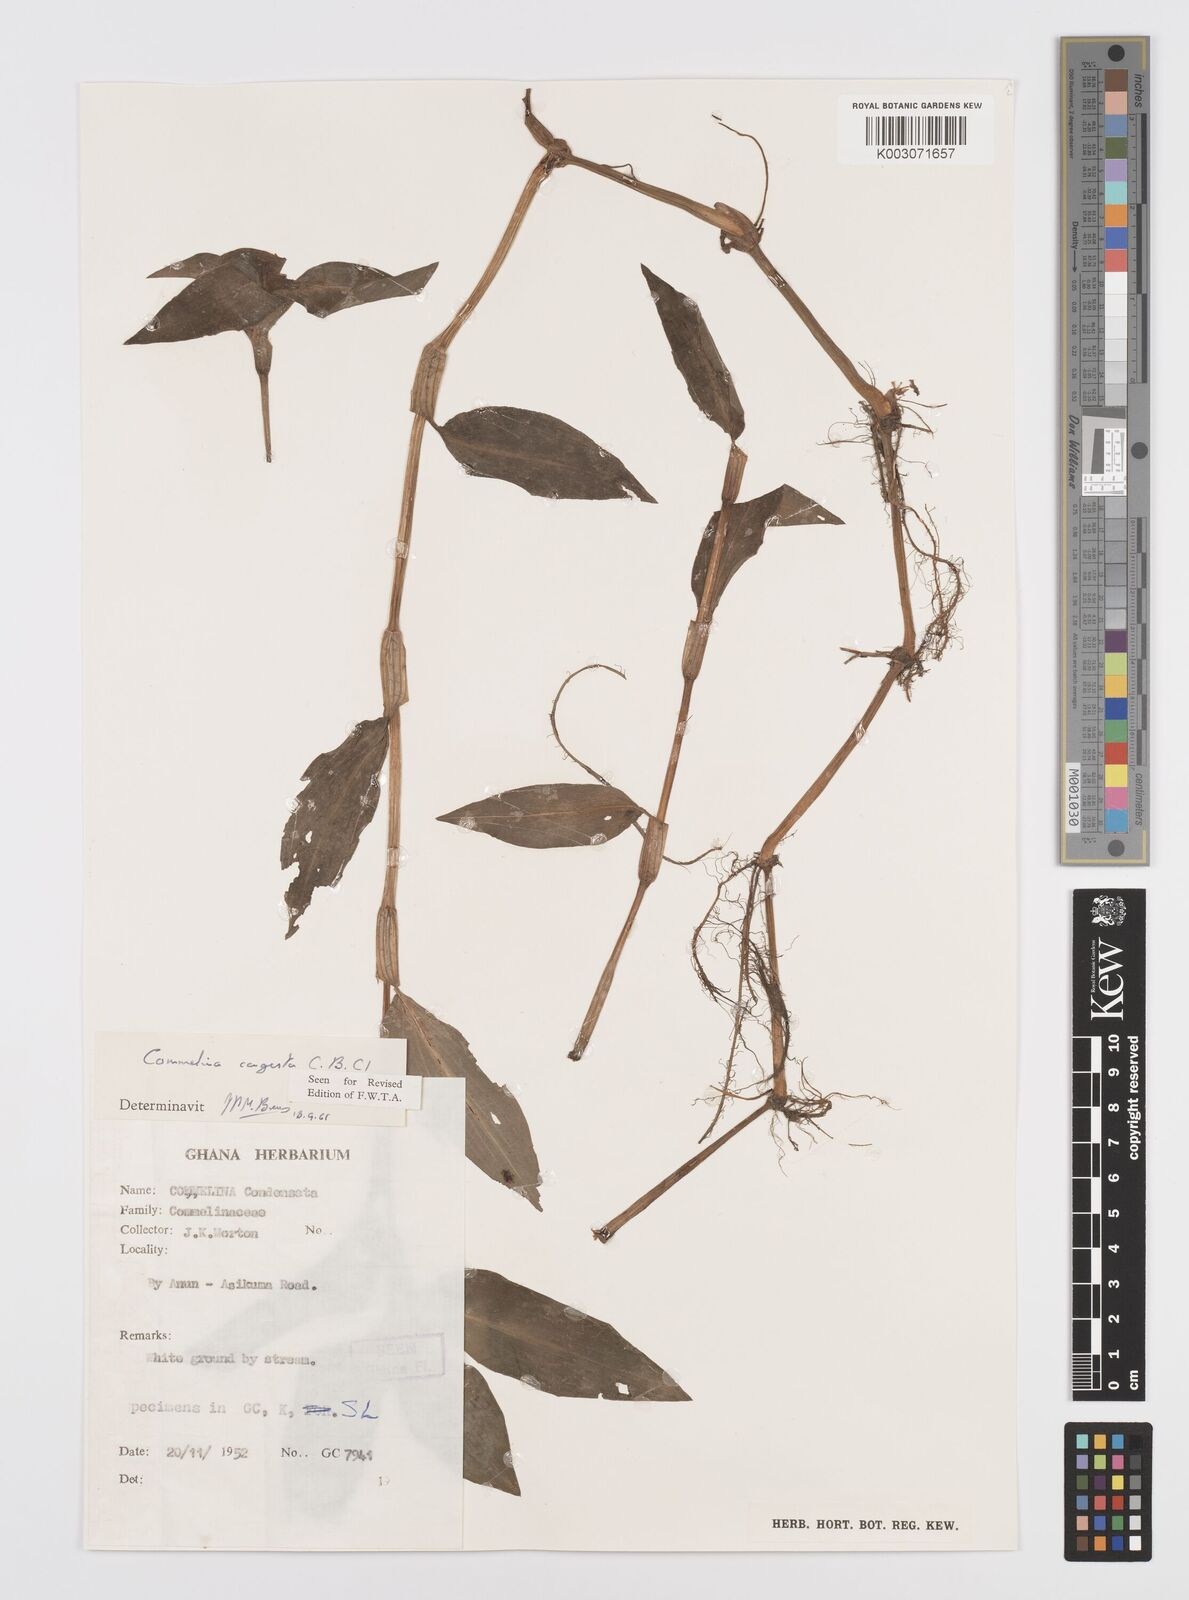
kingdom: Plantae
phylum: Tracheophyta
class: Liliopsida
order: Commelinales
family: Commelinaceae
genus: Commelina
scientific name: Commelina congesta
